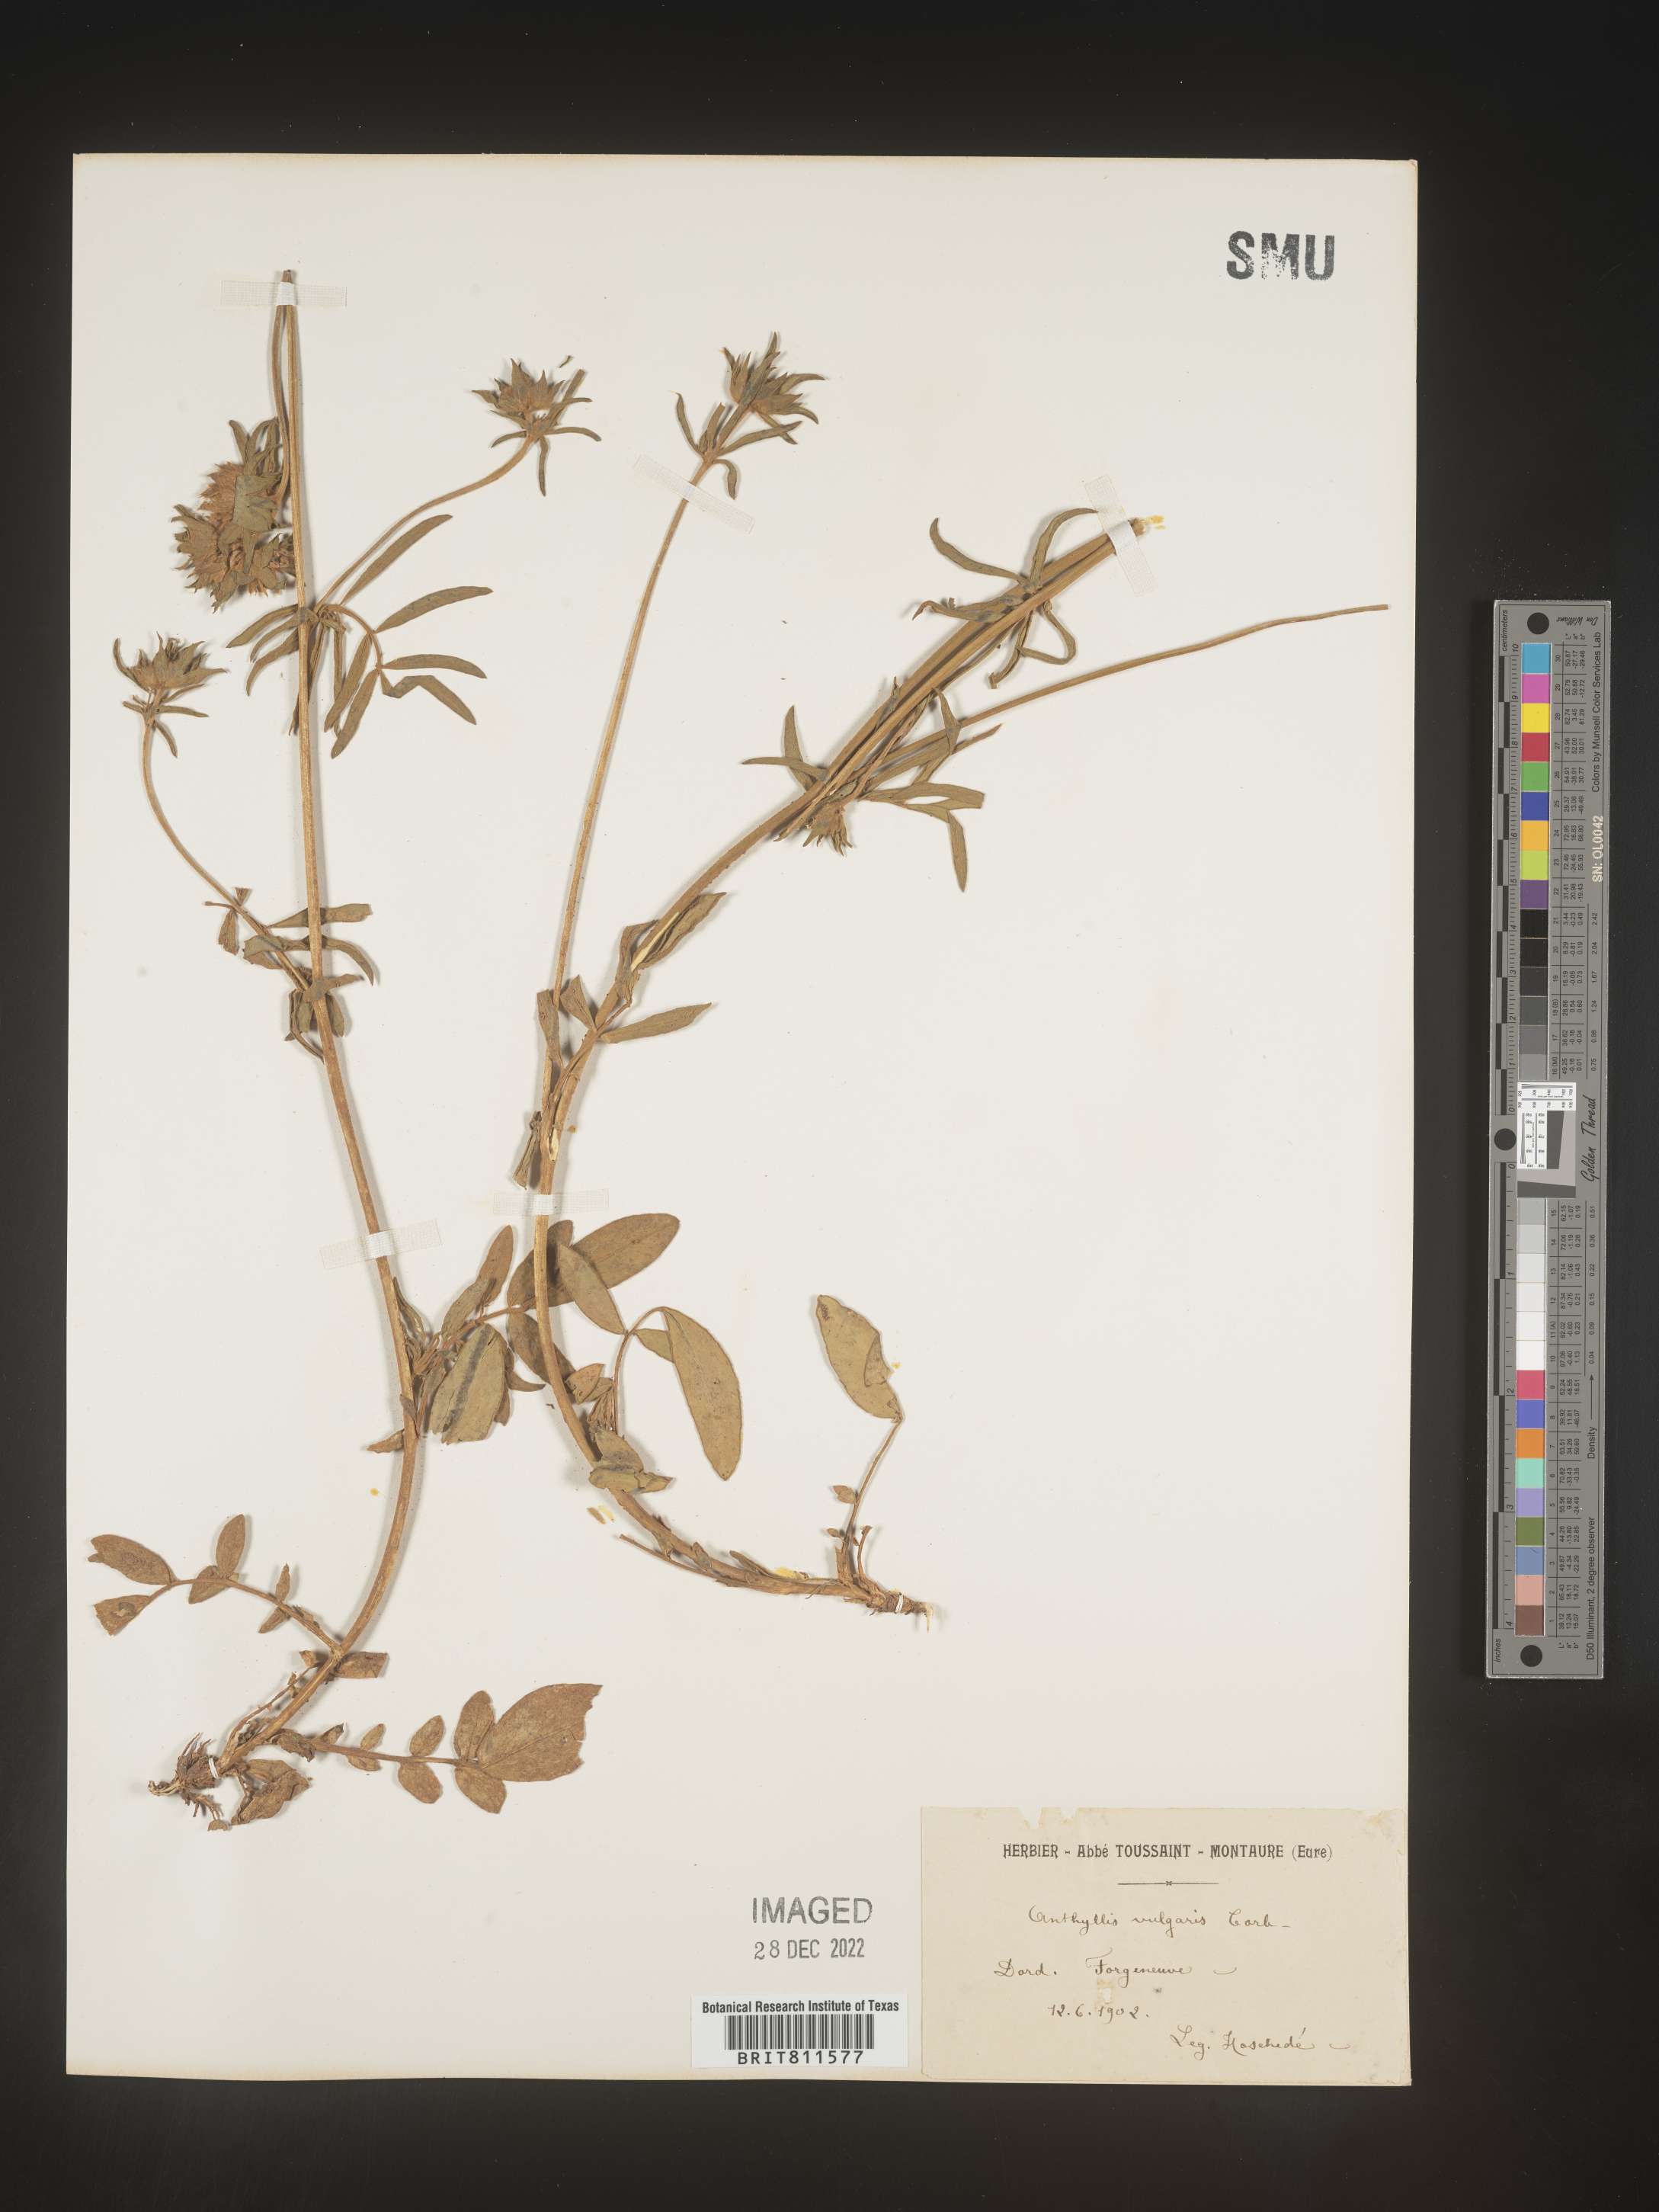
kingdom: Plantae
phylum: Tracheophyta
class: Magnoliopsida
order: Fabales
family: Fabaceae
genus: Anthyllis
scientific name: Anthyllis
